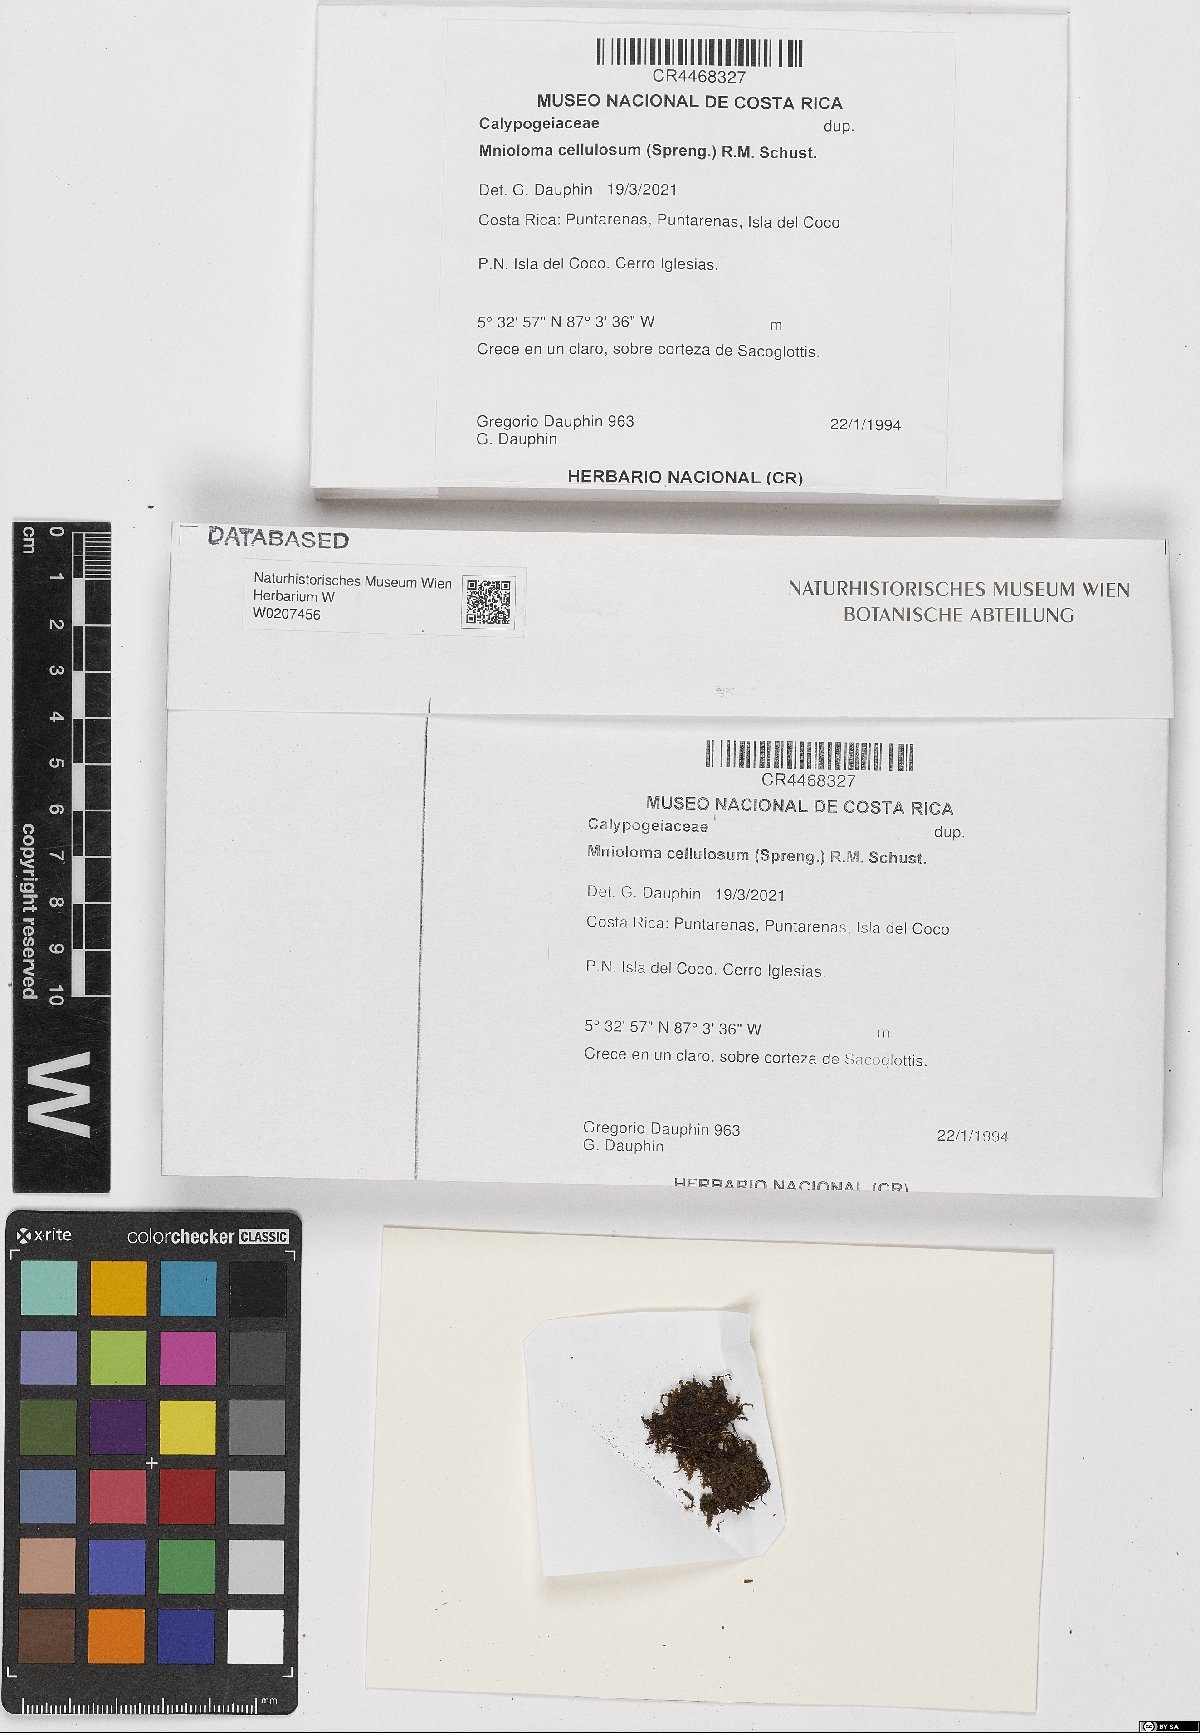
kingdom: Plantae
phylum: Marchantiophyta
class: Jungermanniopsida
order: Jungermanniales
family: Calypogeiaceae
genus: Mnioloma
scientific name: Mnioloma cellulosum
